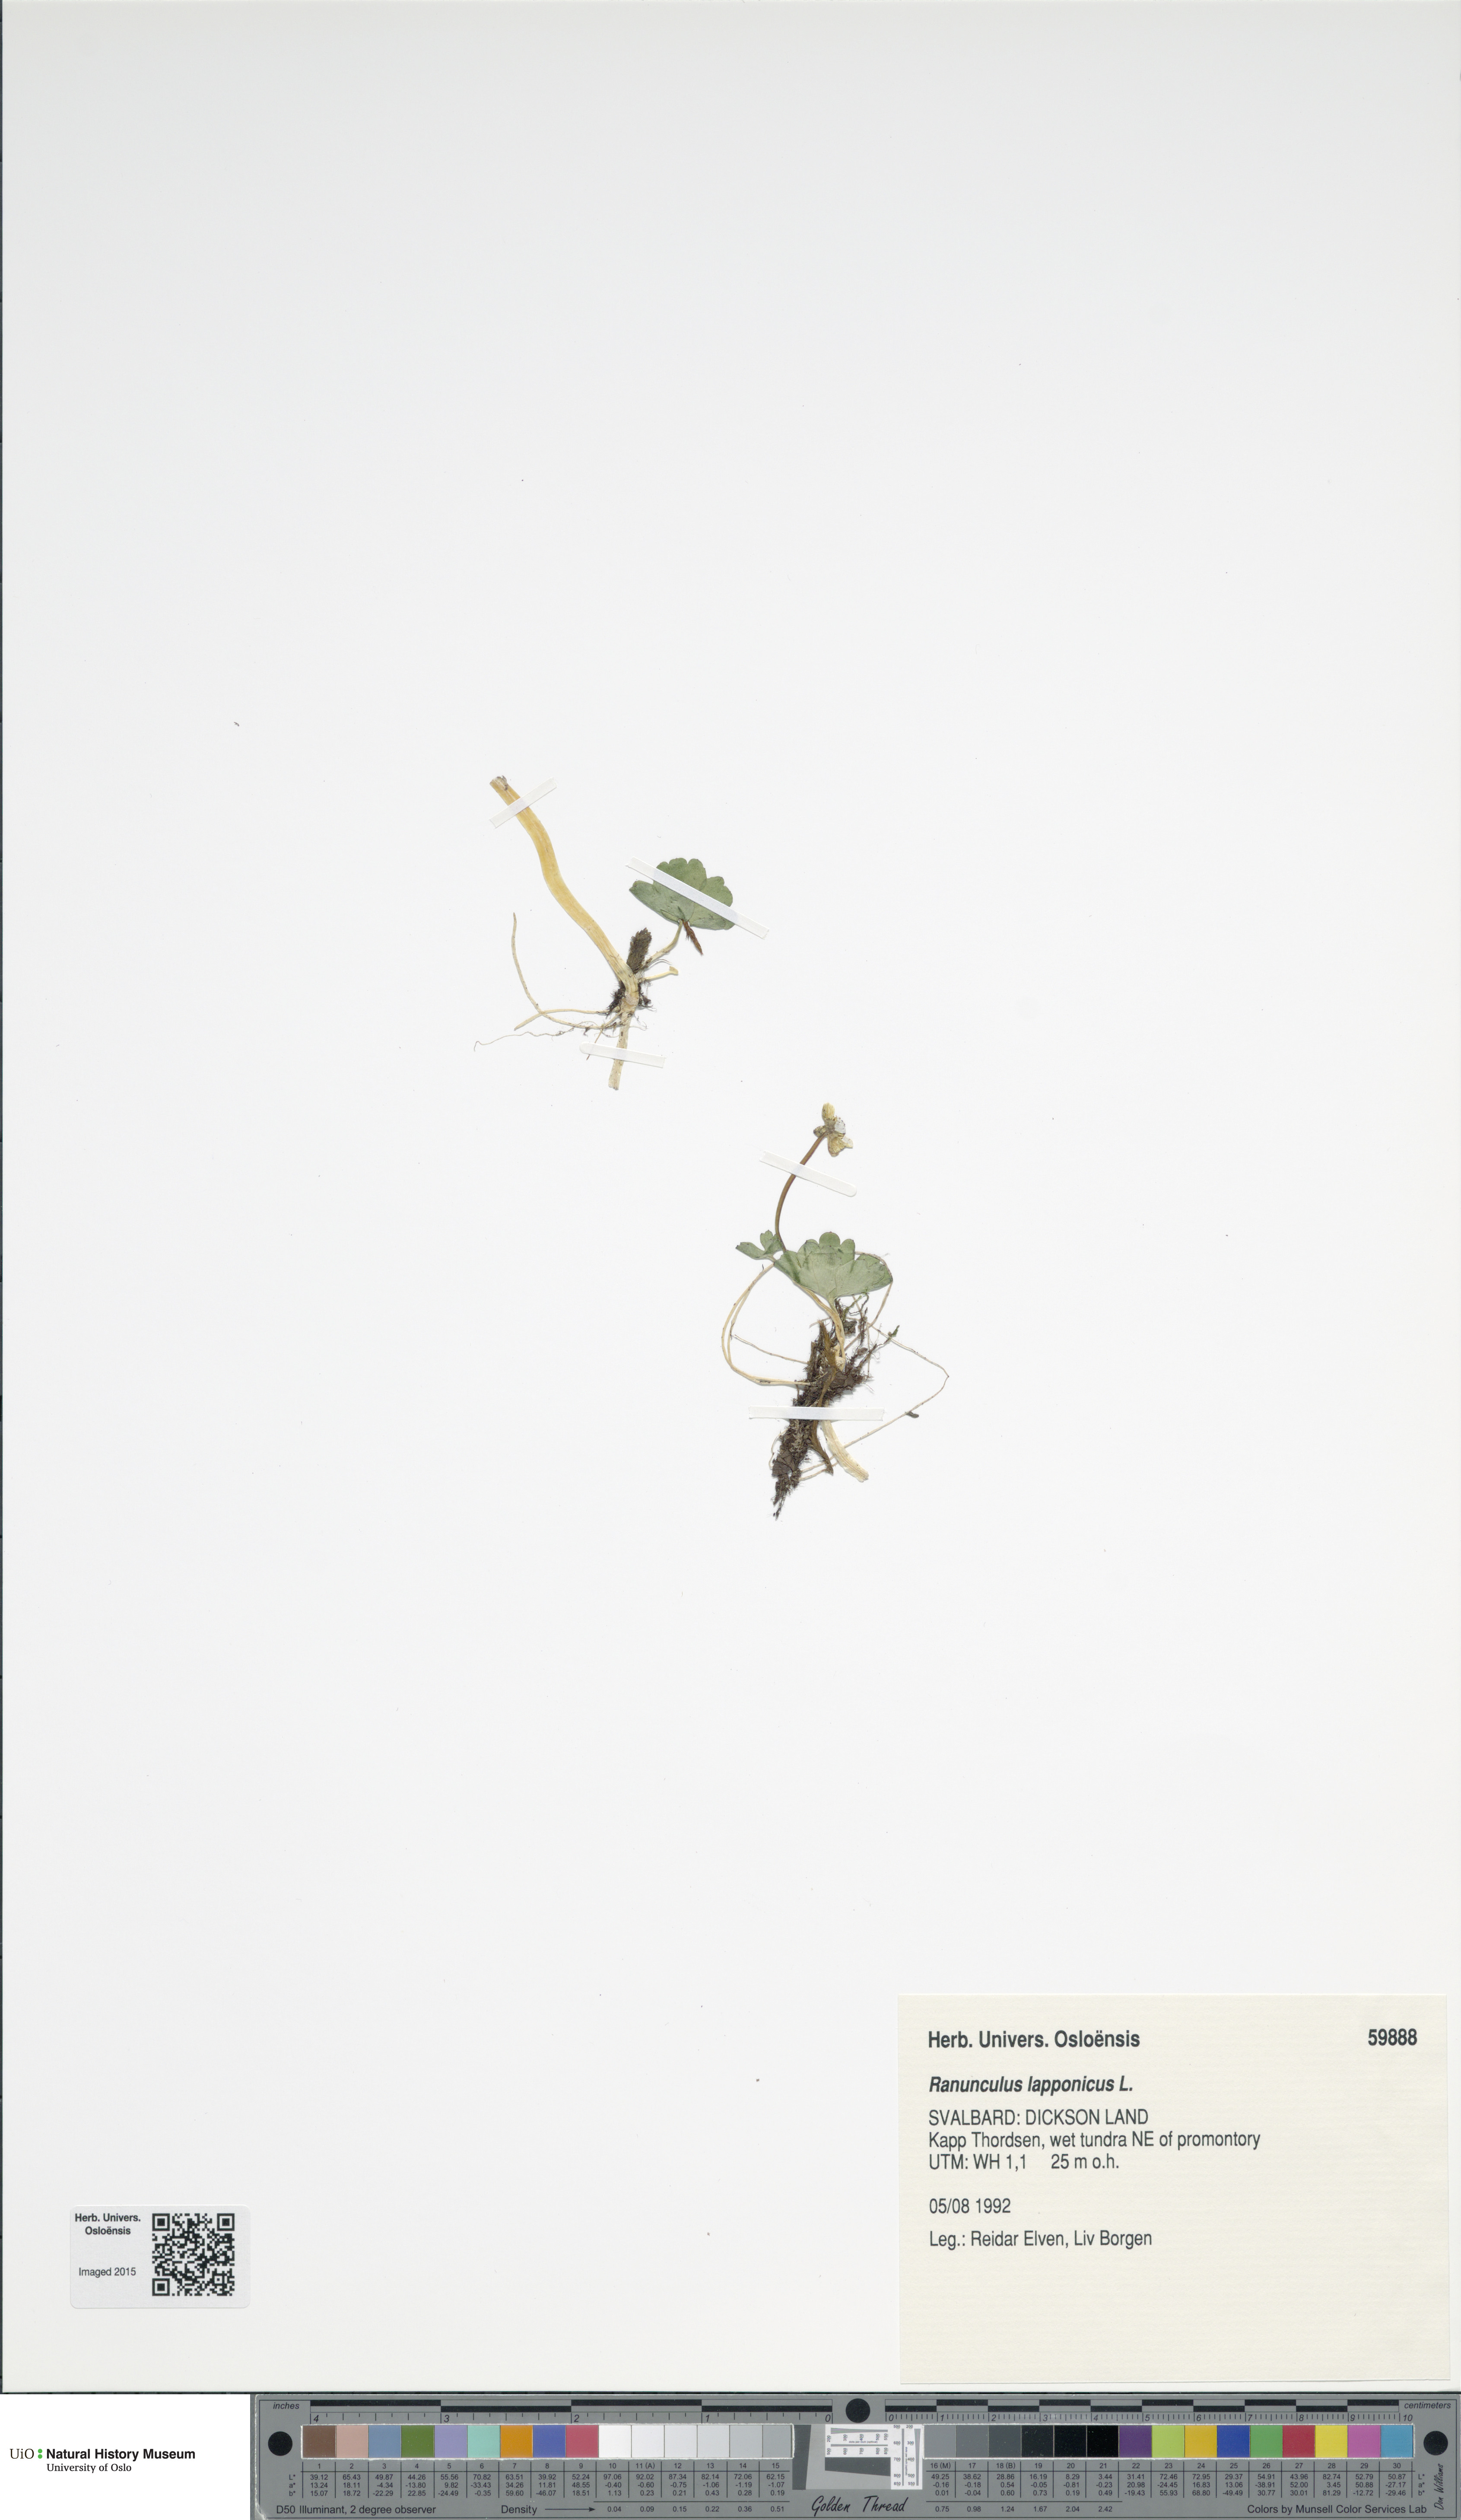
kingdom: Plantae
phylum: Tracheophyta
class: Magnoliopsida
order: Ranunculales
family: Ranunculaceae
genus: Coptidium
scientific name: Coptidium lapponicum
